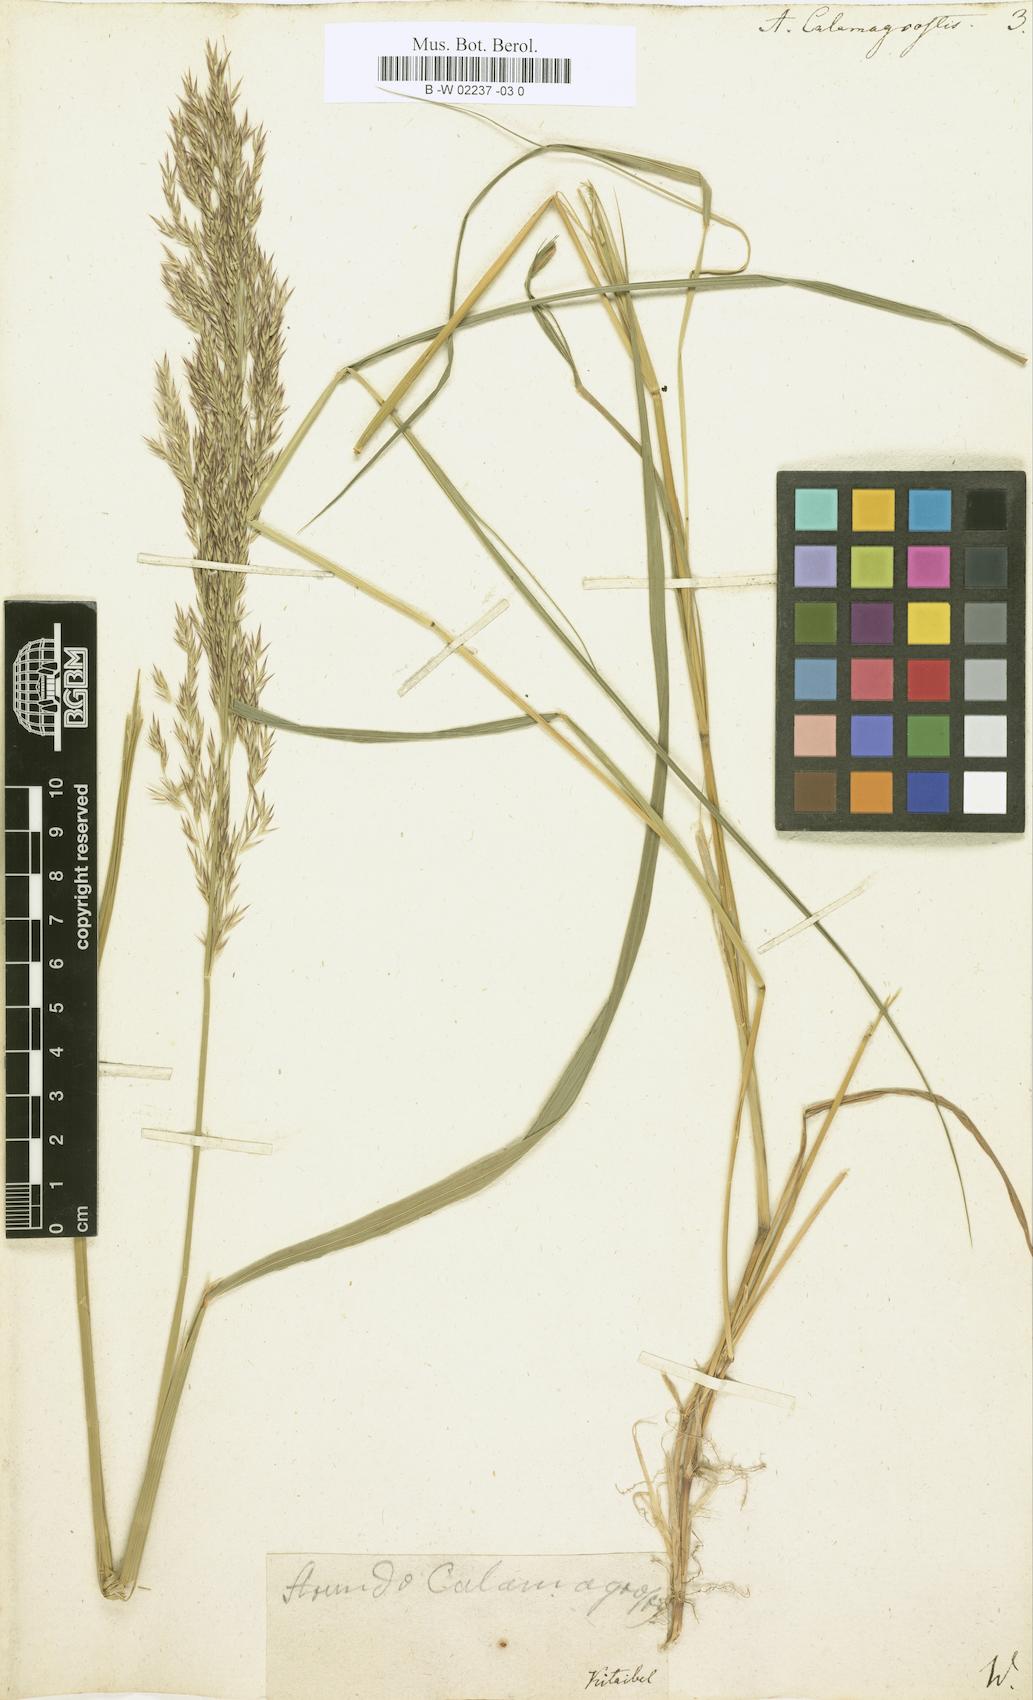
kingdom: Plantae
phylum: Tracheophyta
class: Liliopsida
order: Poales
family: Poaceae
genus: Calamagrostis
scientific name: Calamagrostis canescens
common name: Purple small-reed
